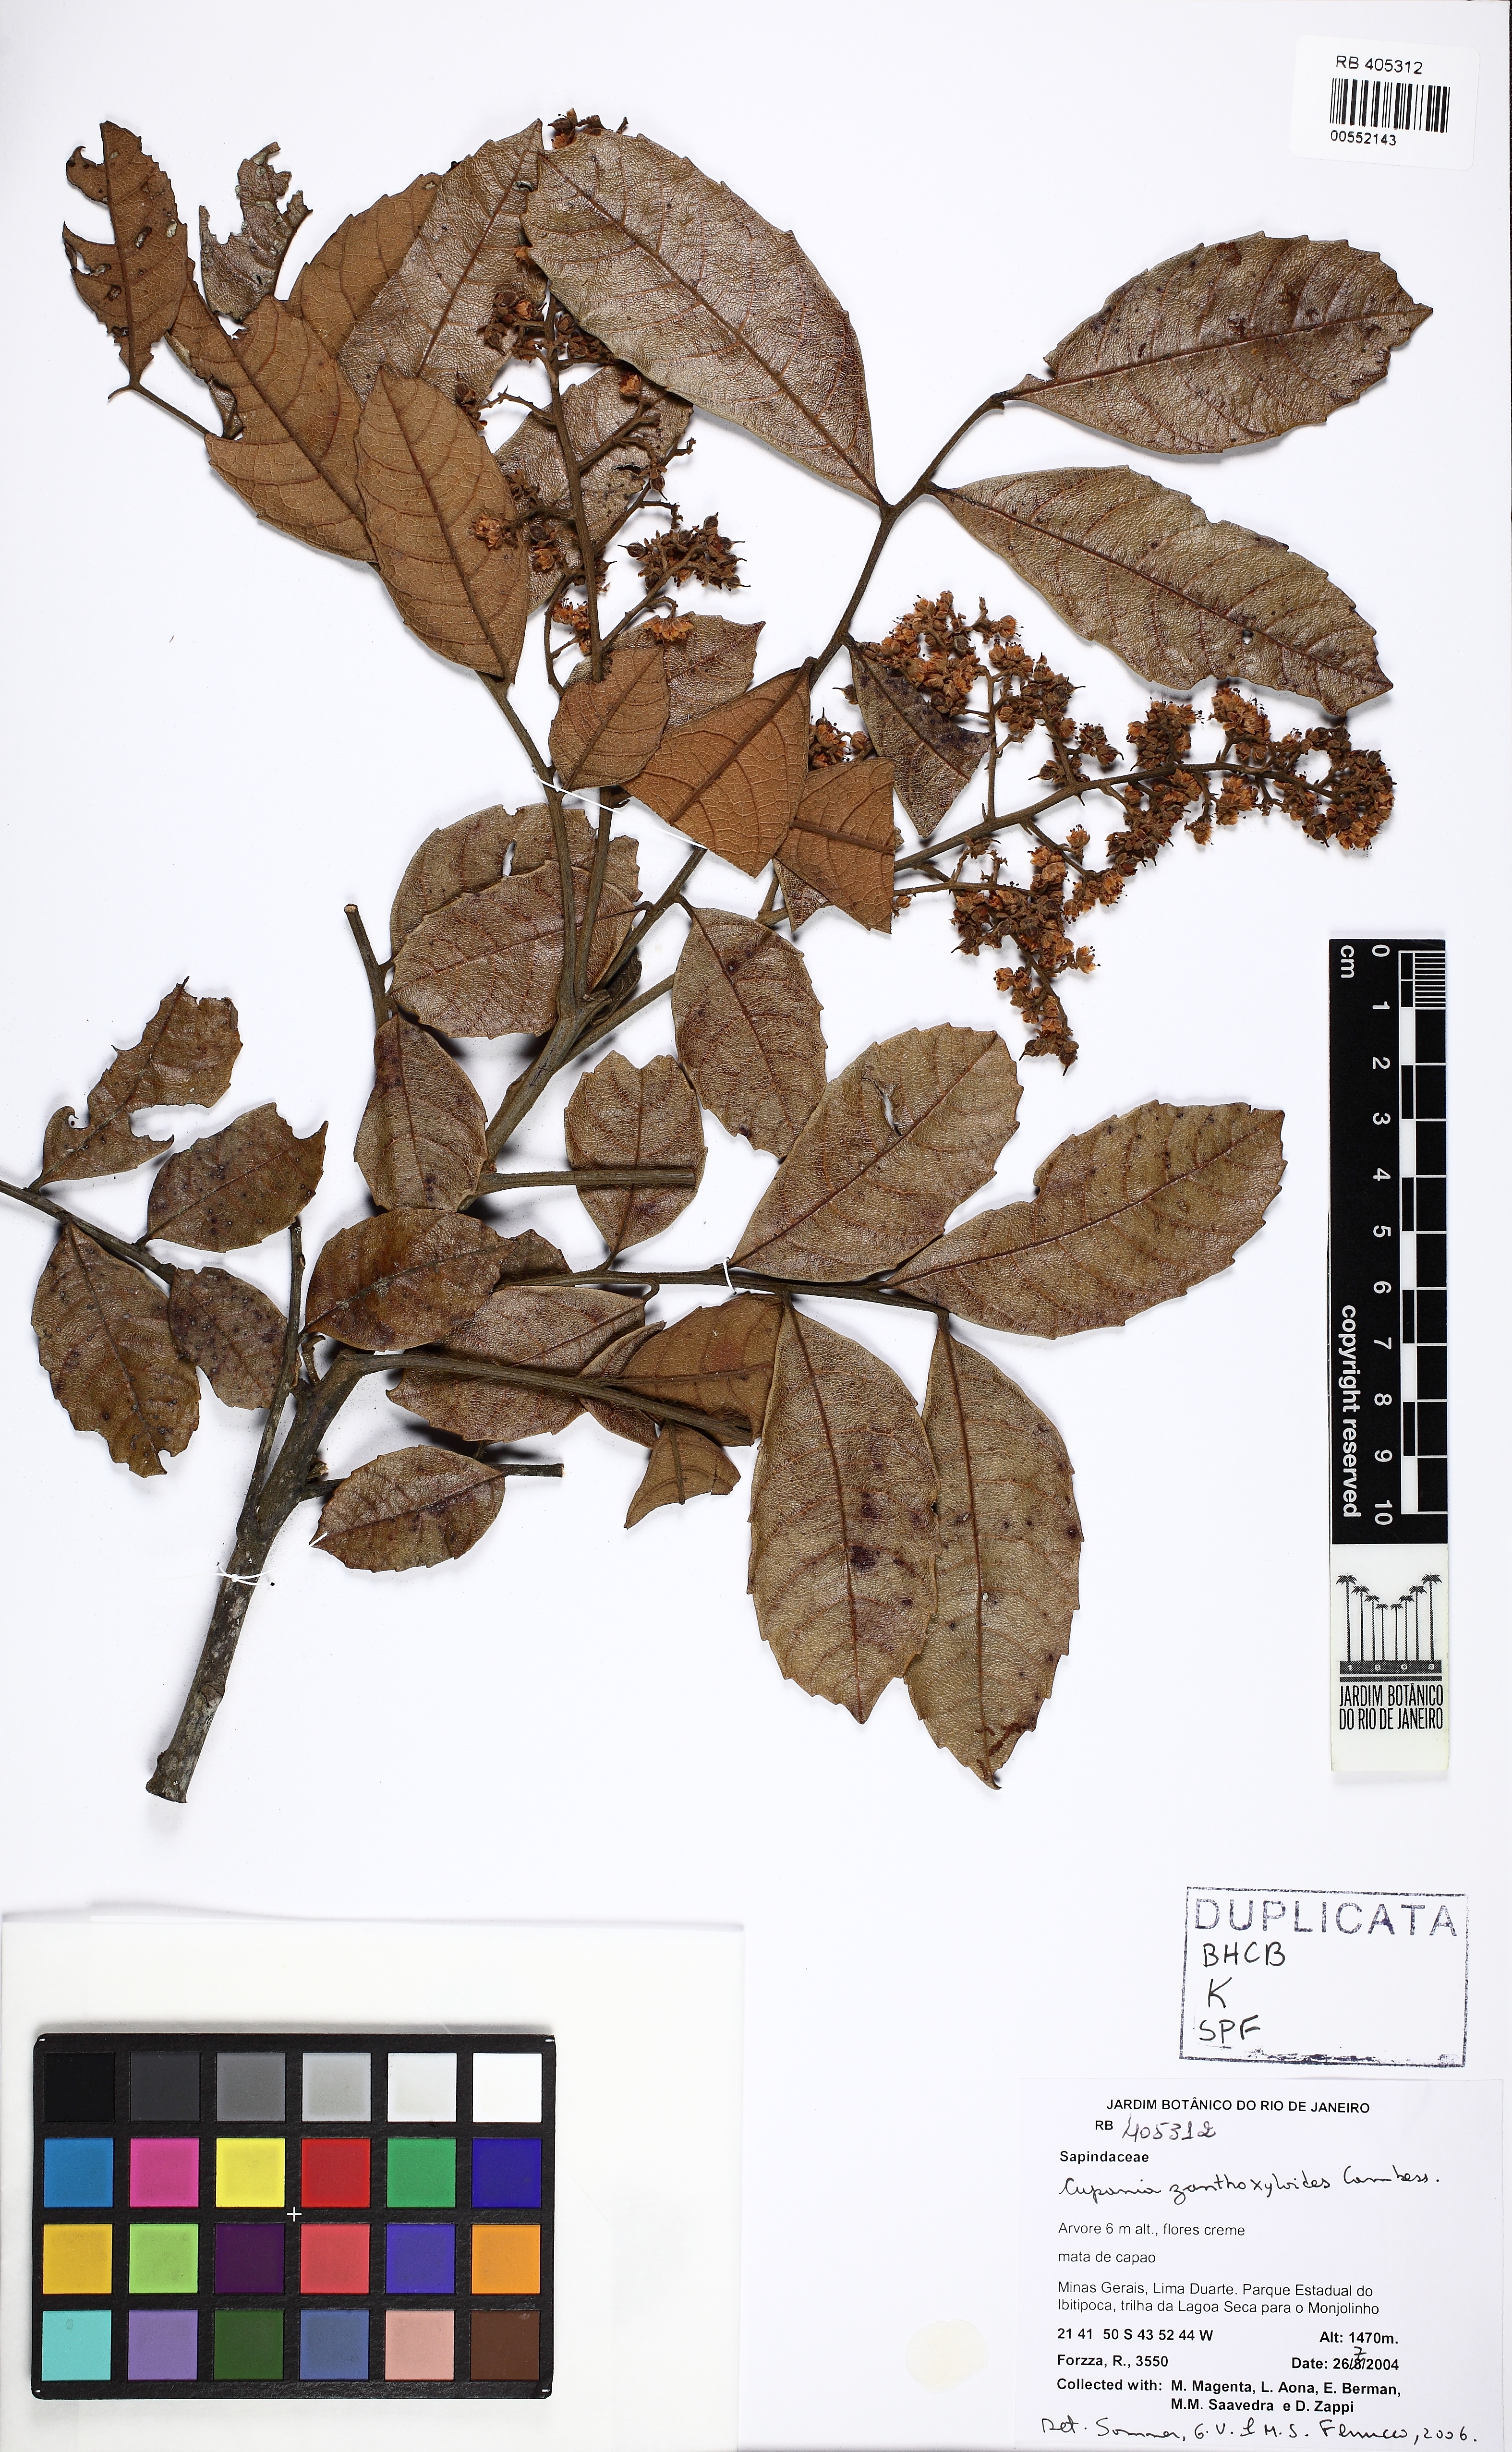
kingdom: Plantae
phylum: Tracheophyta
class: Magnoliopsida
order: Sapindales
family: Sapindaceae
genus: Cupania
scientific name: Cupania zanthoxyloides
